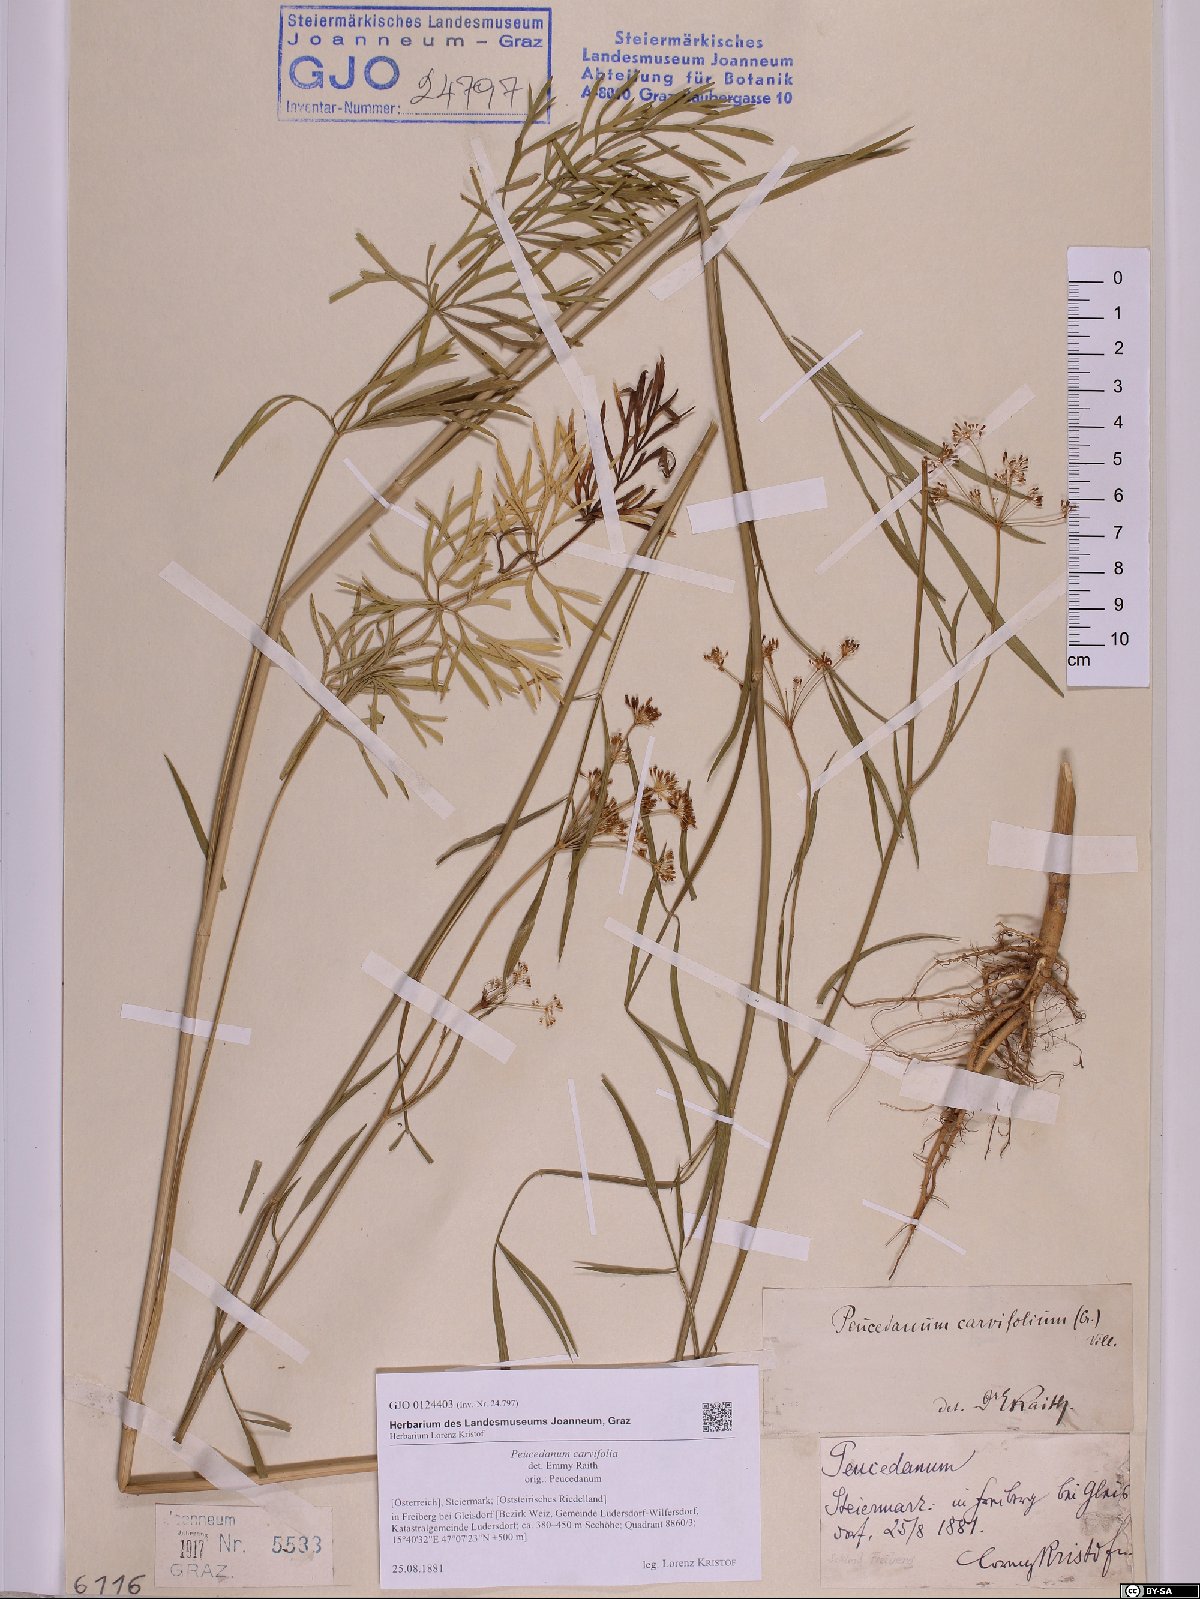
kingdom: Plantae
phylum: Tracheophyta
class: Magnoliopsida
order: Apiales
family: Apiaceae
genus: Dichoropetalum
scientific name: Dichoropetalum carvifolia
